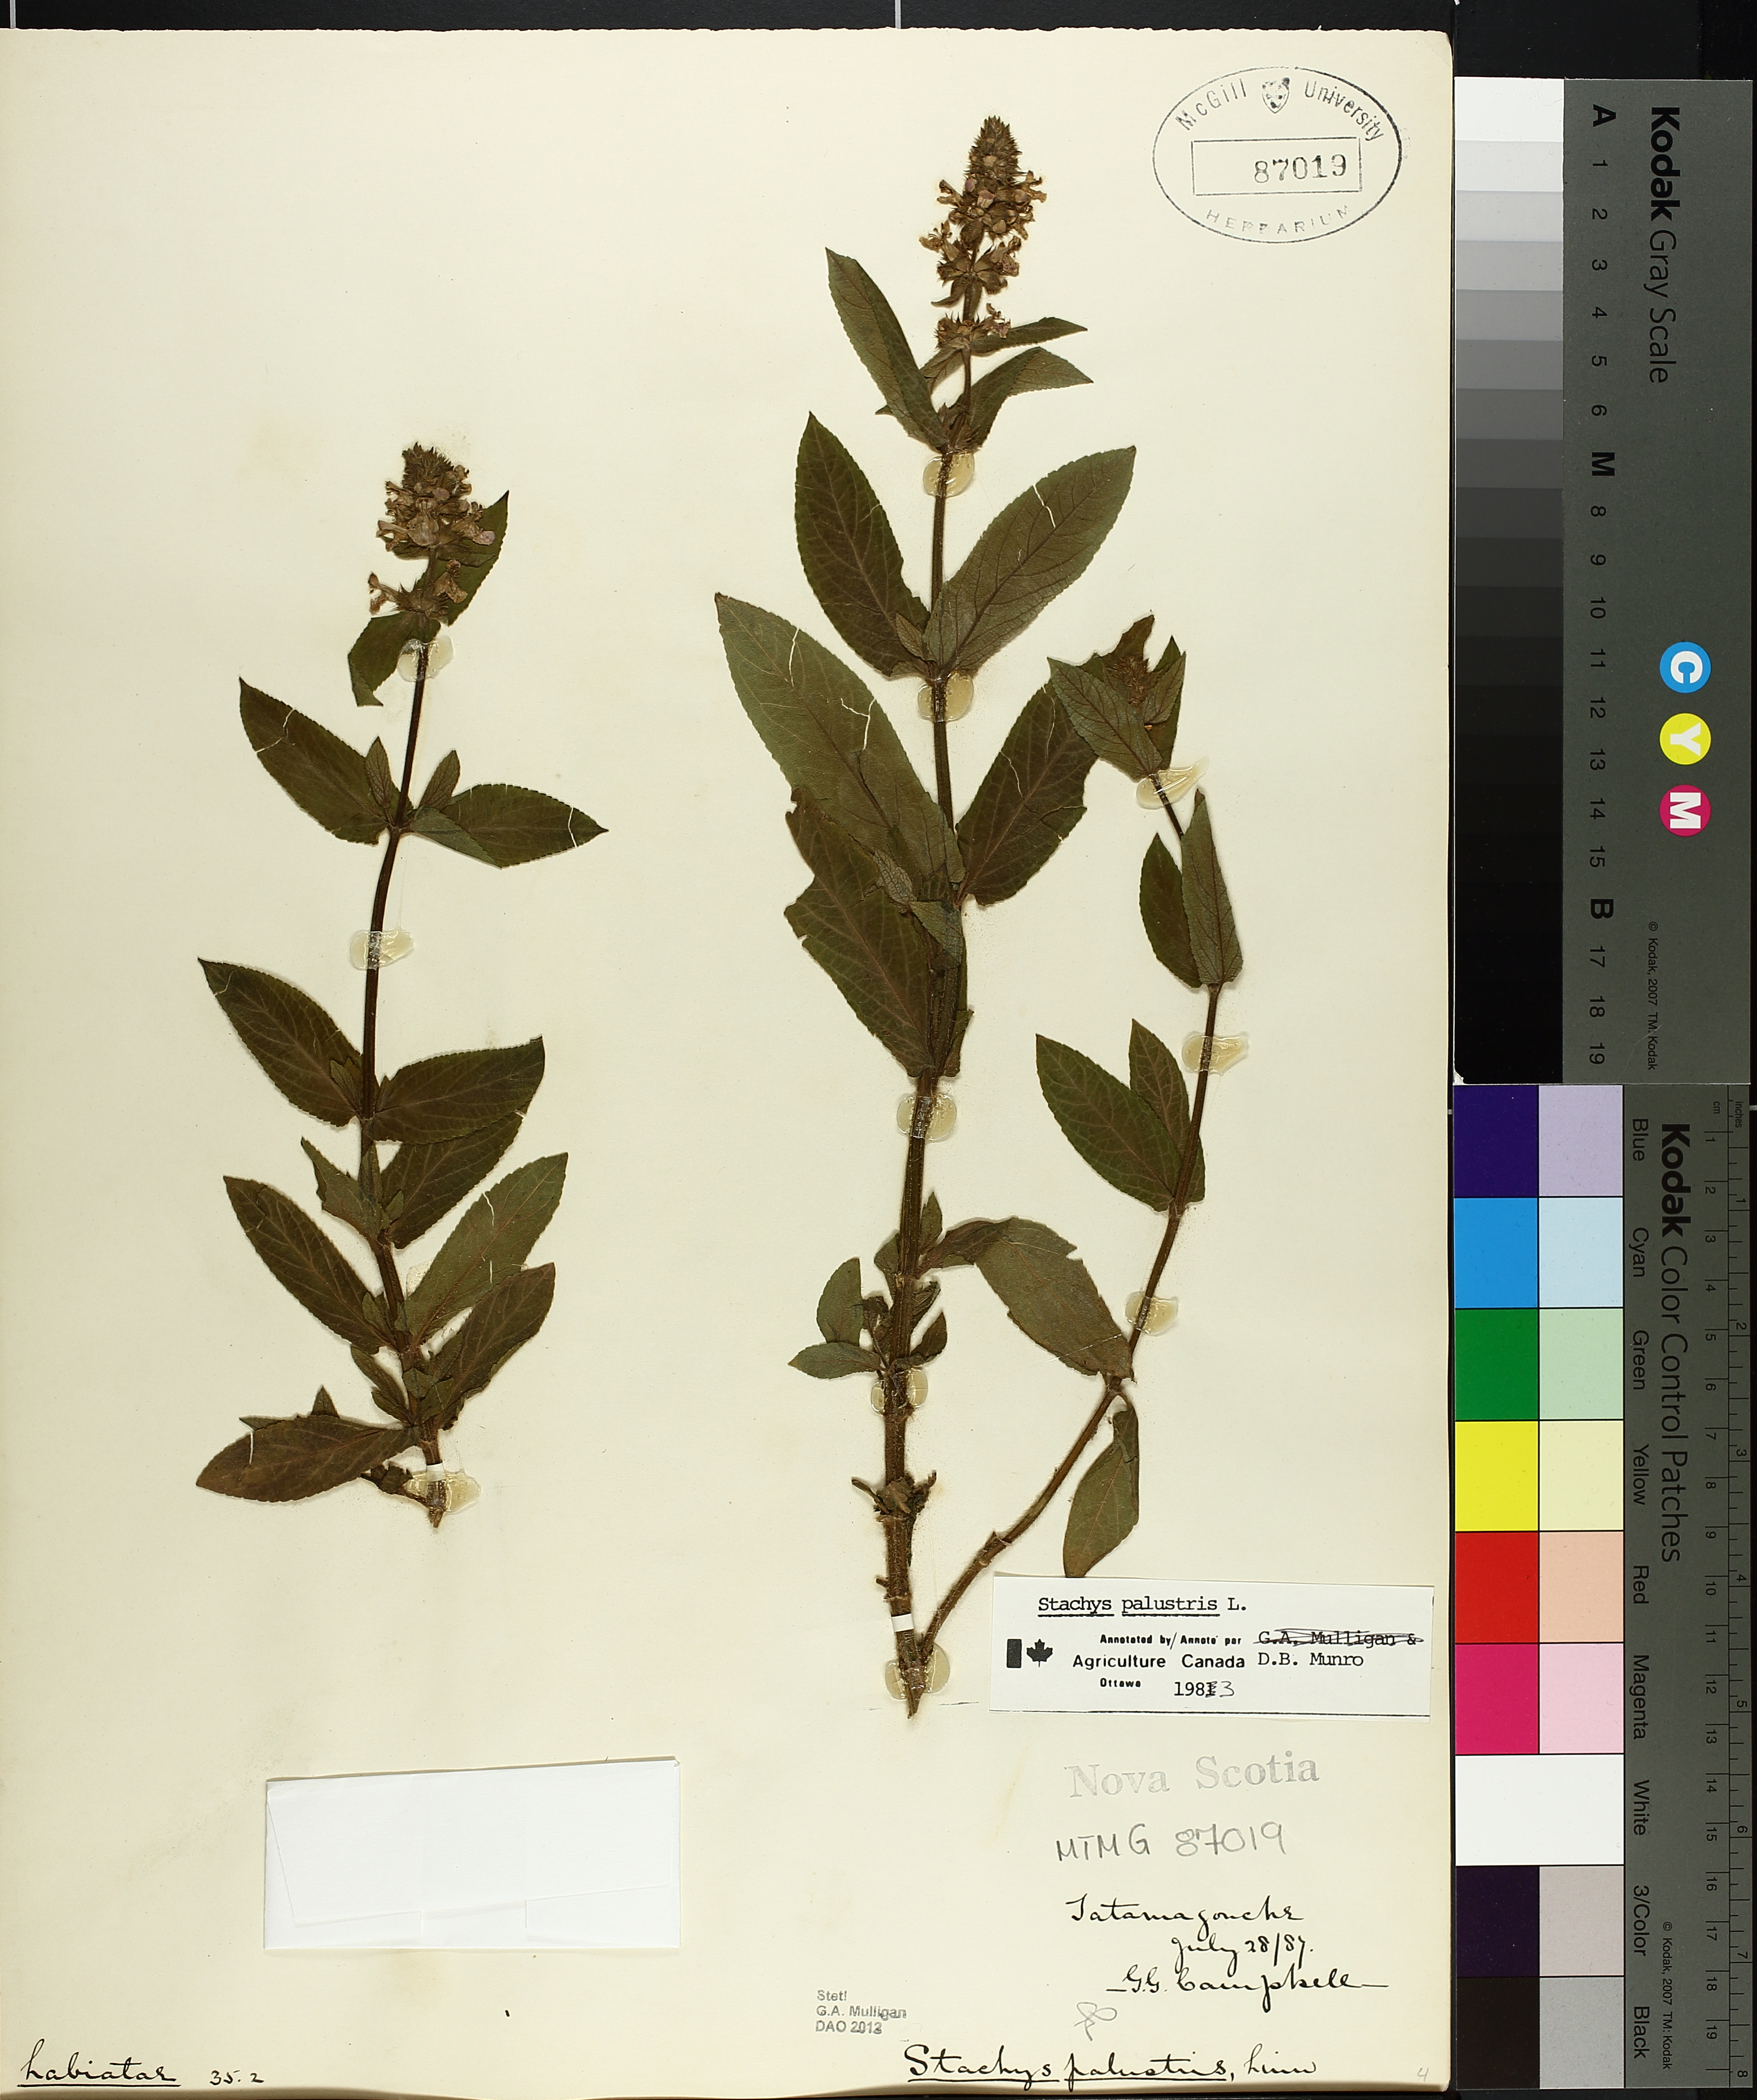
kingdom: Plantae
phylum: Tracheophyta
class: Magnoliopsida
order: Lamiales
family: Lamiaceae
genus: Stachys
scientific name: Stachys palustris
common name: Marsh woundwort
